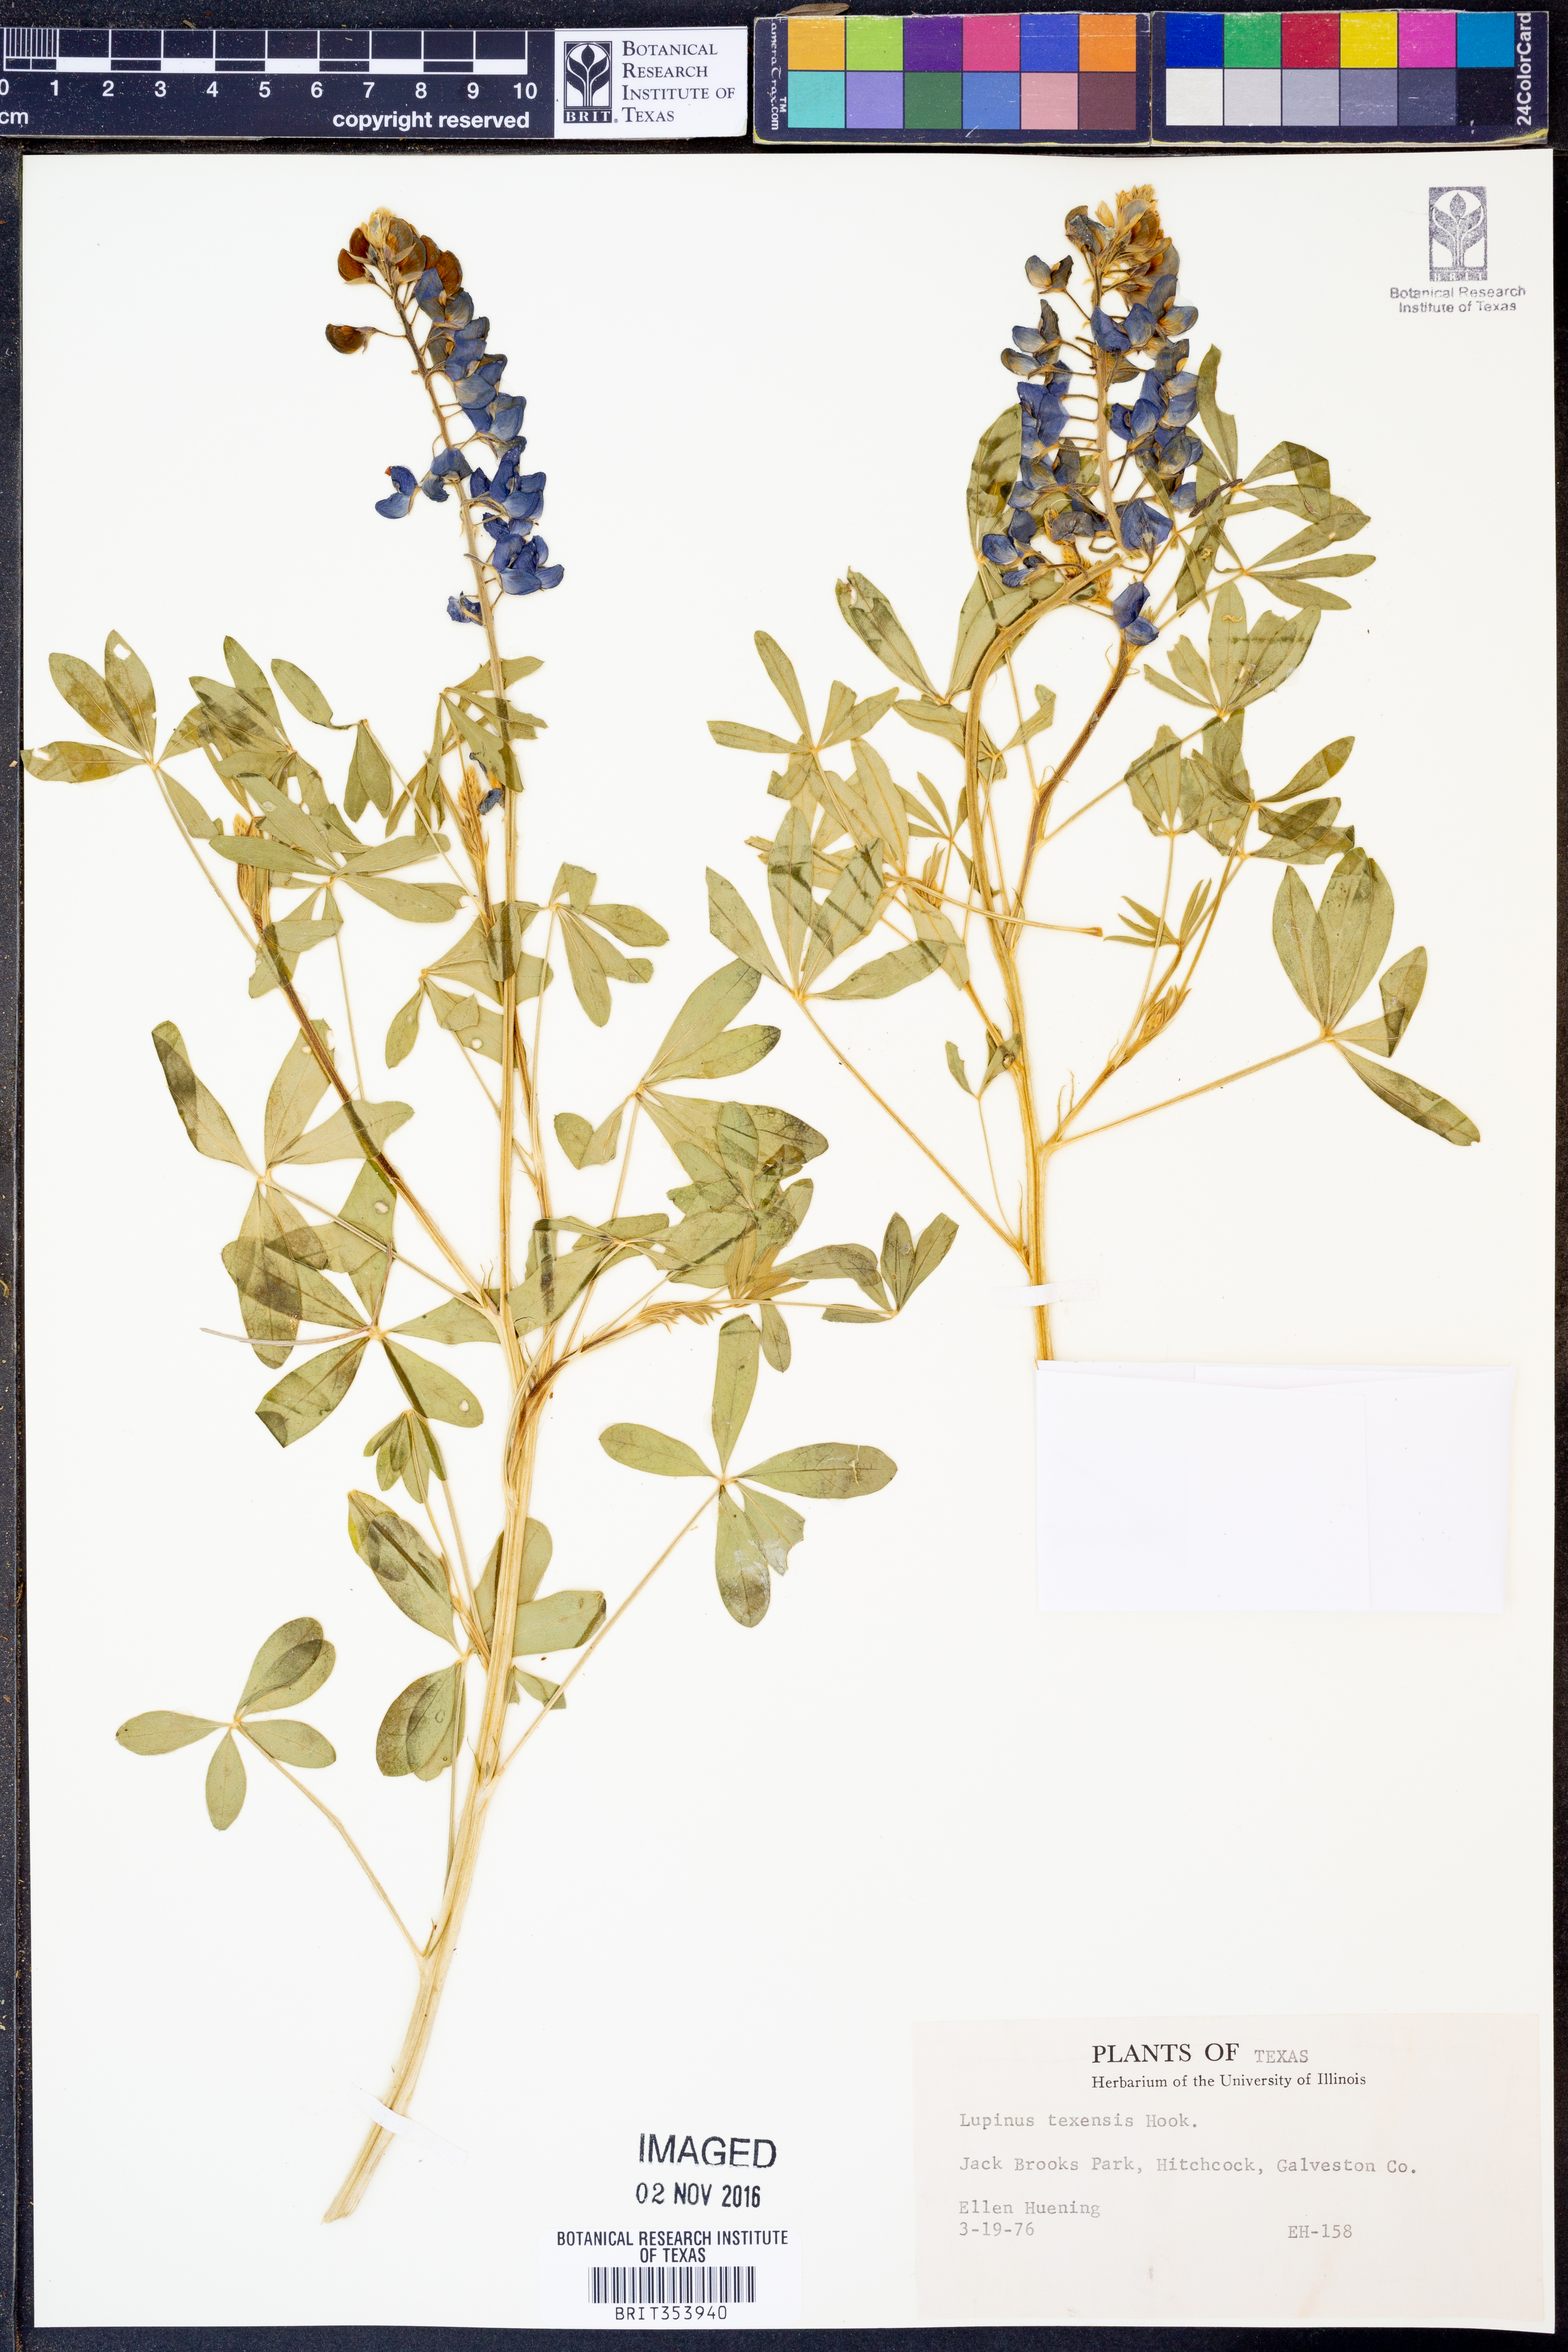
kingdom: Plantae
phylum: Tracheophyta
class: Magnoliopsida
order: Fabales
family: Fabaceae
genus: Lupinus
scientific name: Lupinus texensis
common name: Texas bluebonnet
